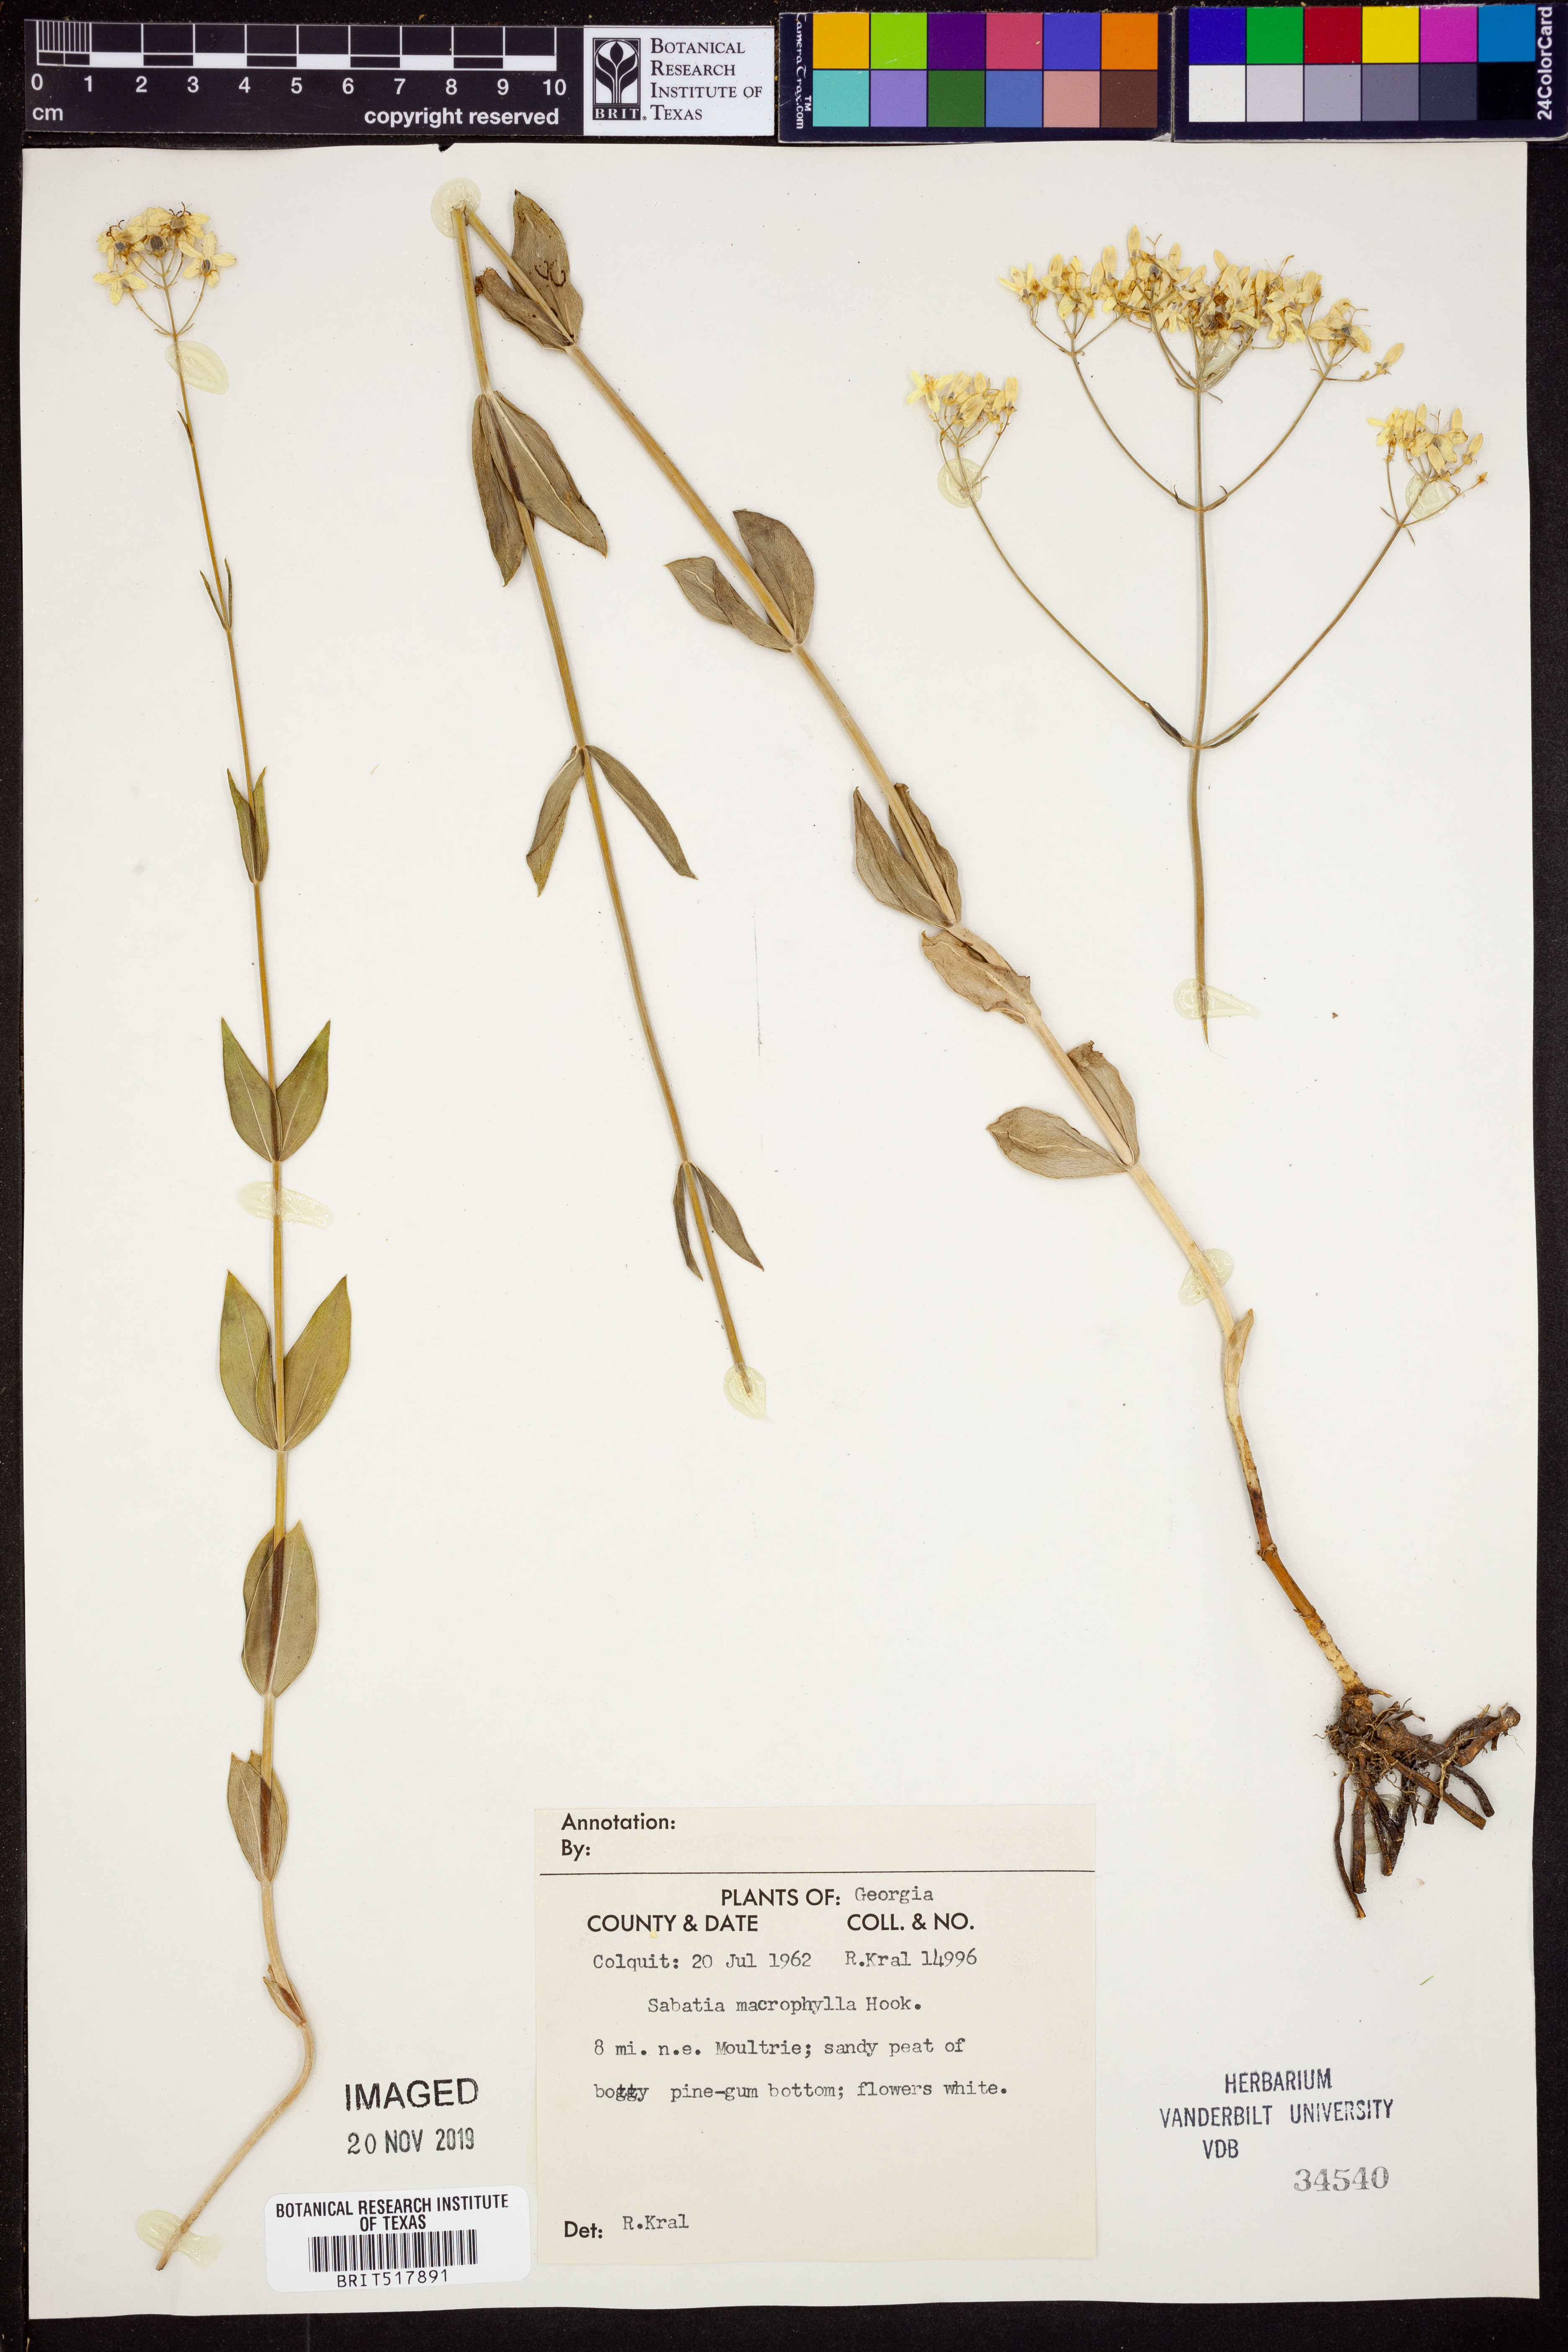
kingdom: Plantae
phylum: Tracheophyta
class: Magnoliopsida
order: Gentianales
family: Gentianaceae
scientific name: Gentianaceae
